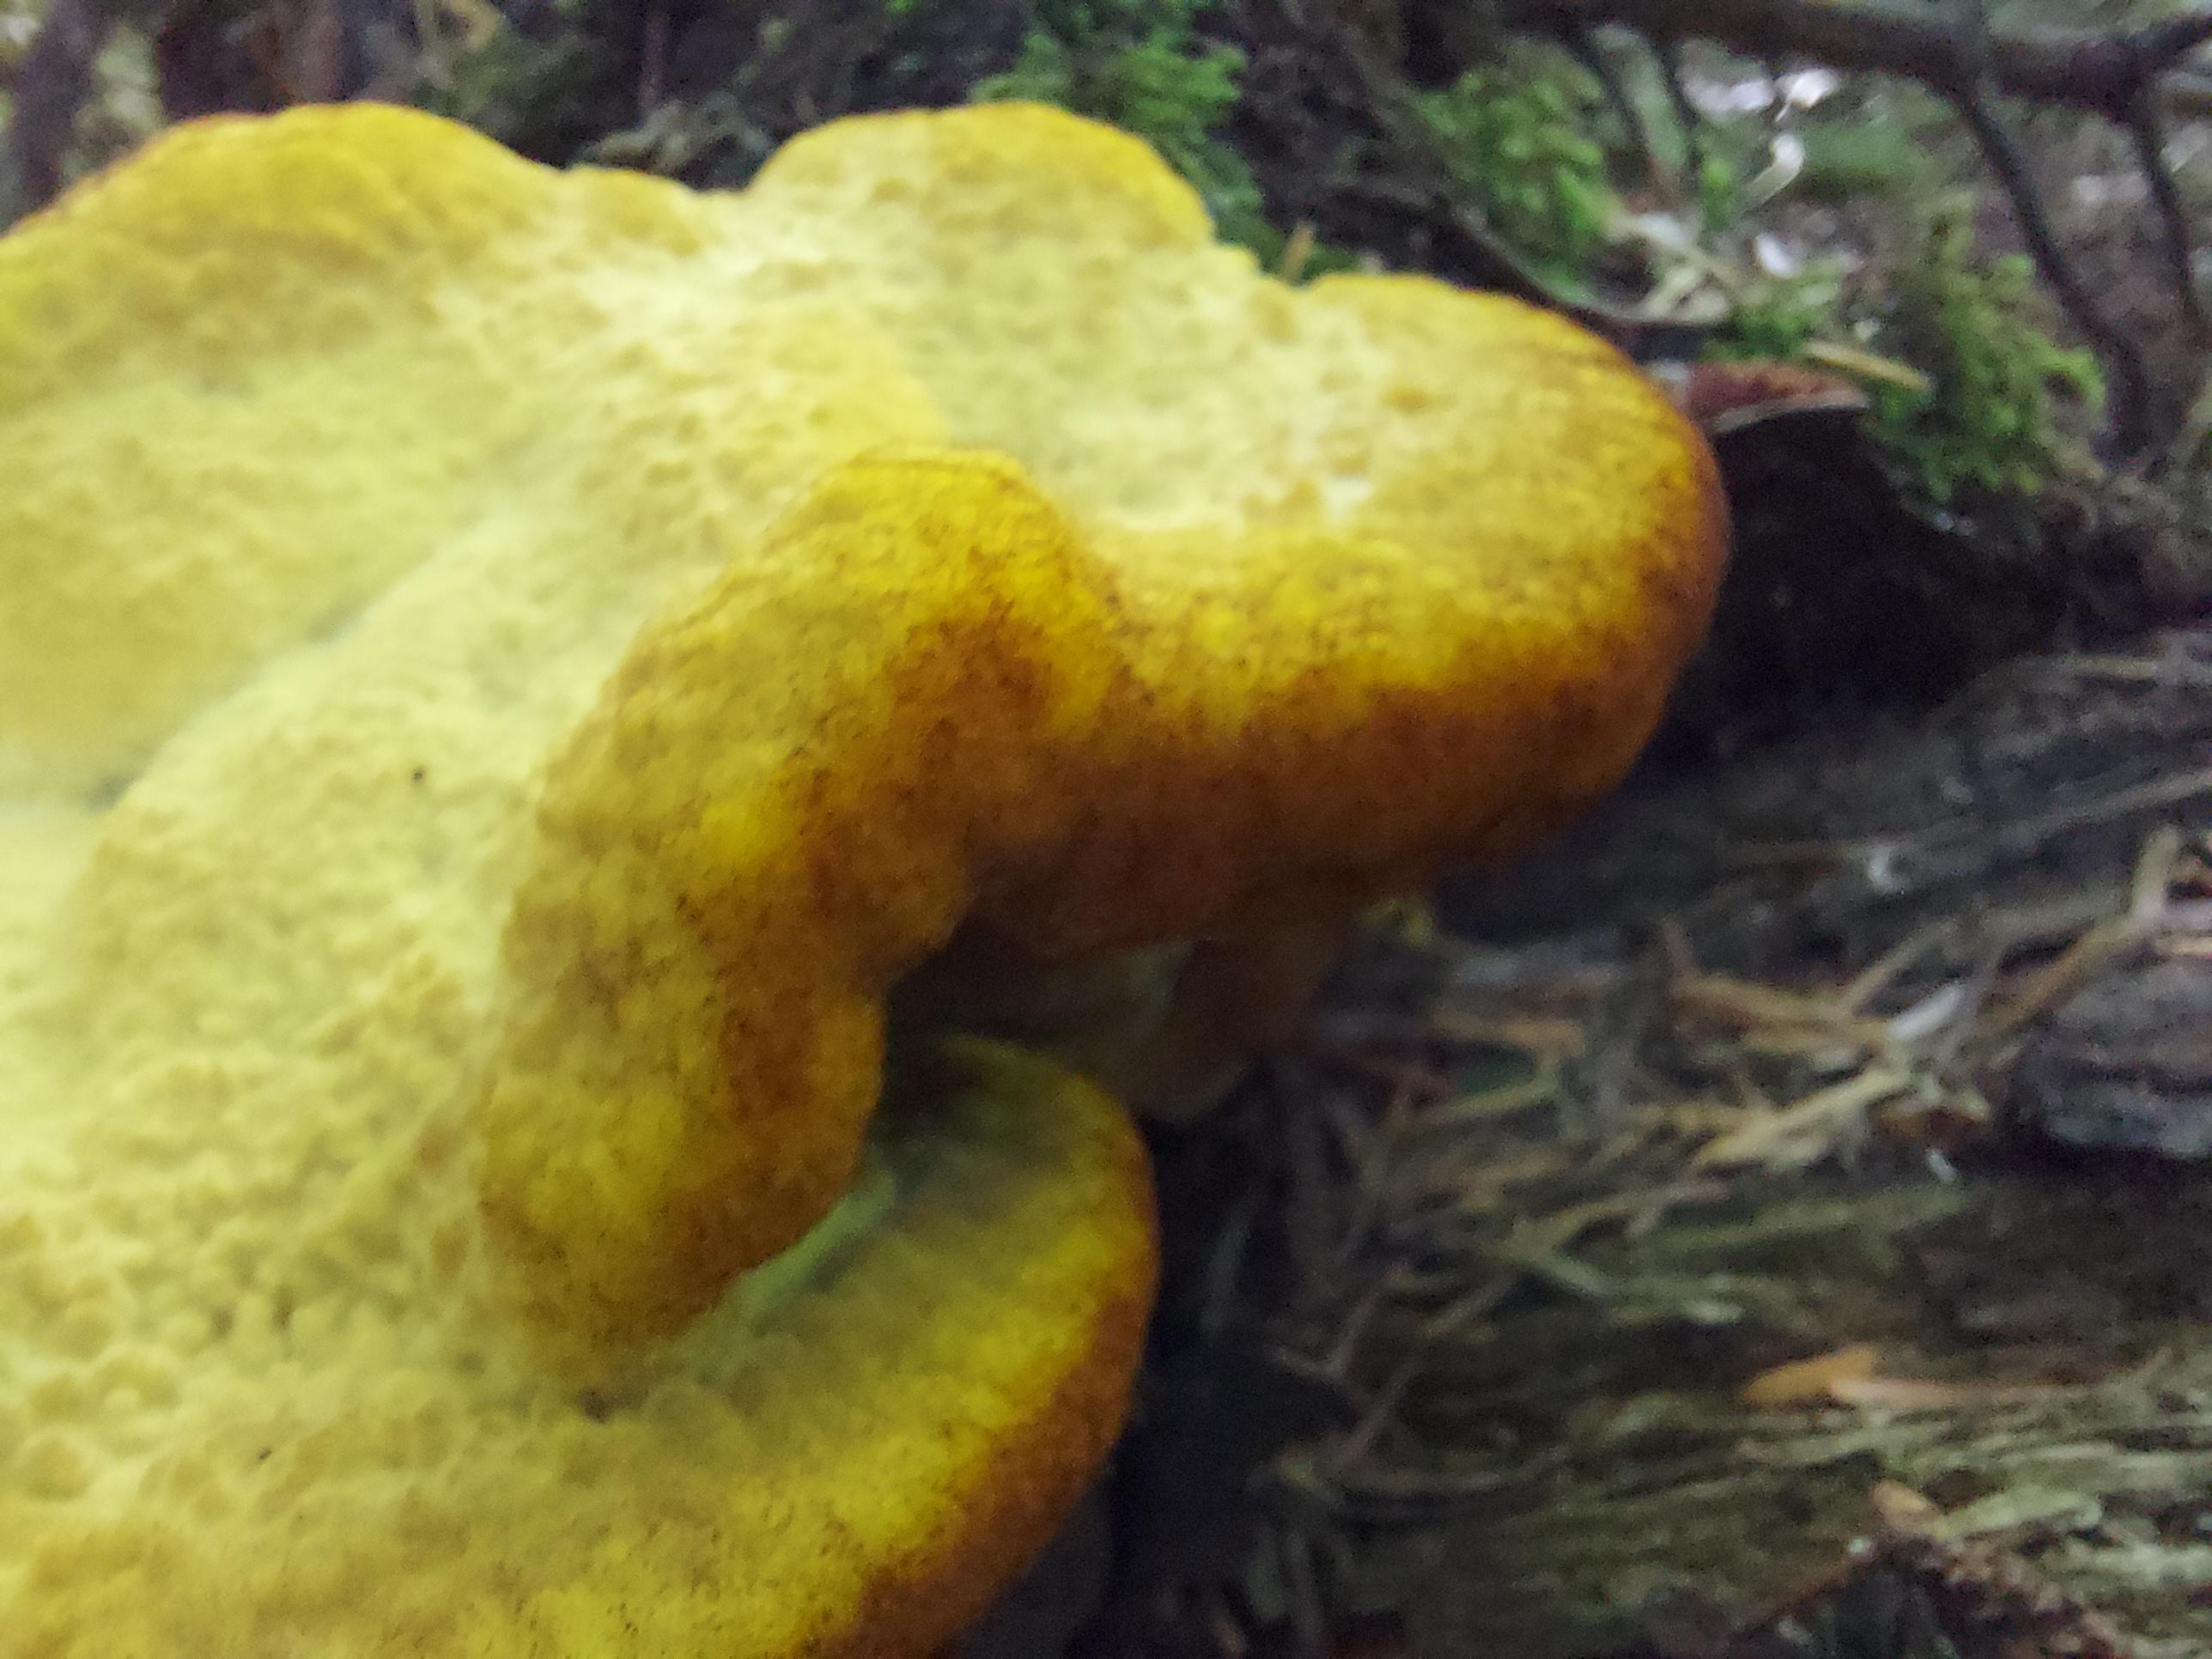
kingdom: Fungi
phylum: Basidiomycota
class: Agaricomycetes
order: Polyporales
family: Laetiporaceae
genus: Phaeolus
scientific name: Phaeolus schweinitzii
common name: brunporesvamp
